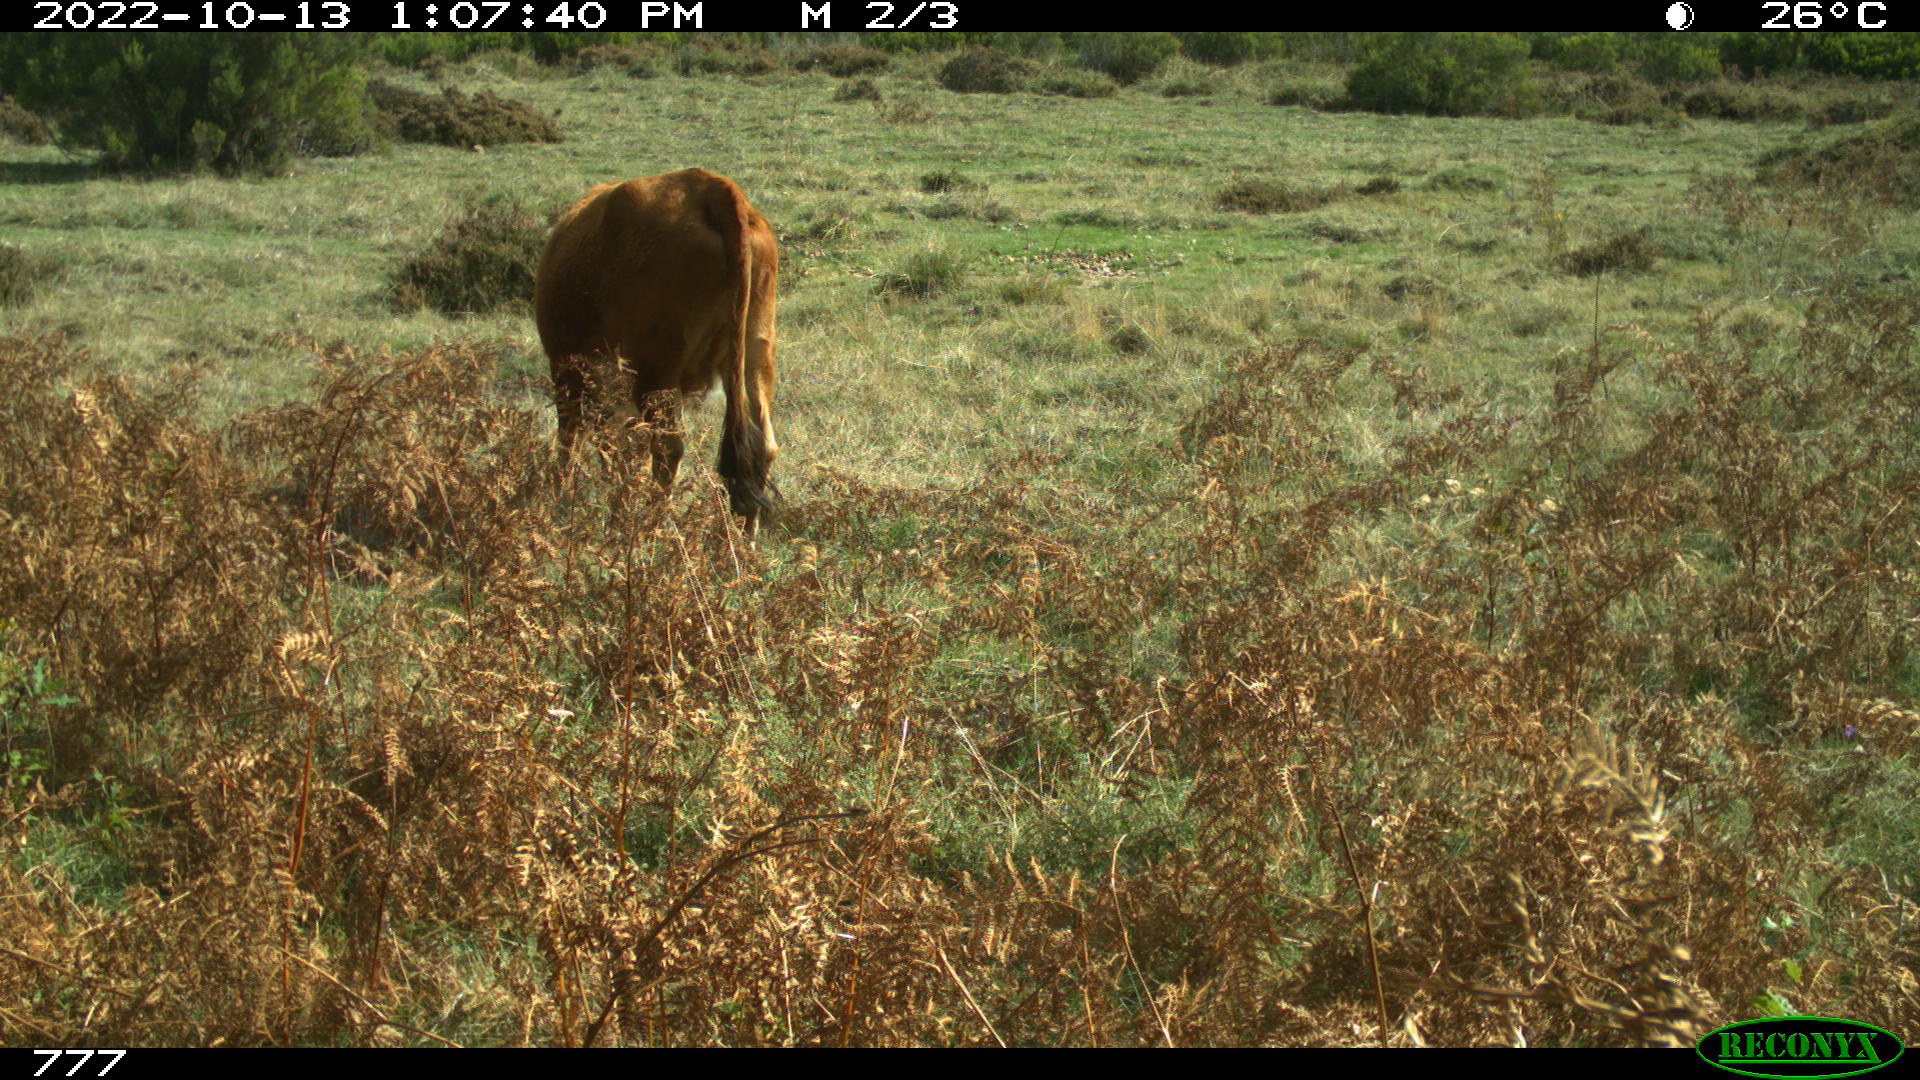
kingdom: Animalia
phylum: Chordata
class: Mammalia
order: Artiodactyla
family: Bovidae
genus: Bos
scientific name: Bos taurus
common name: Domesticated cattle
